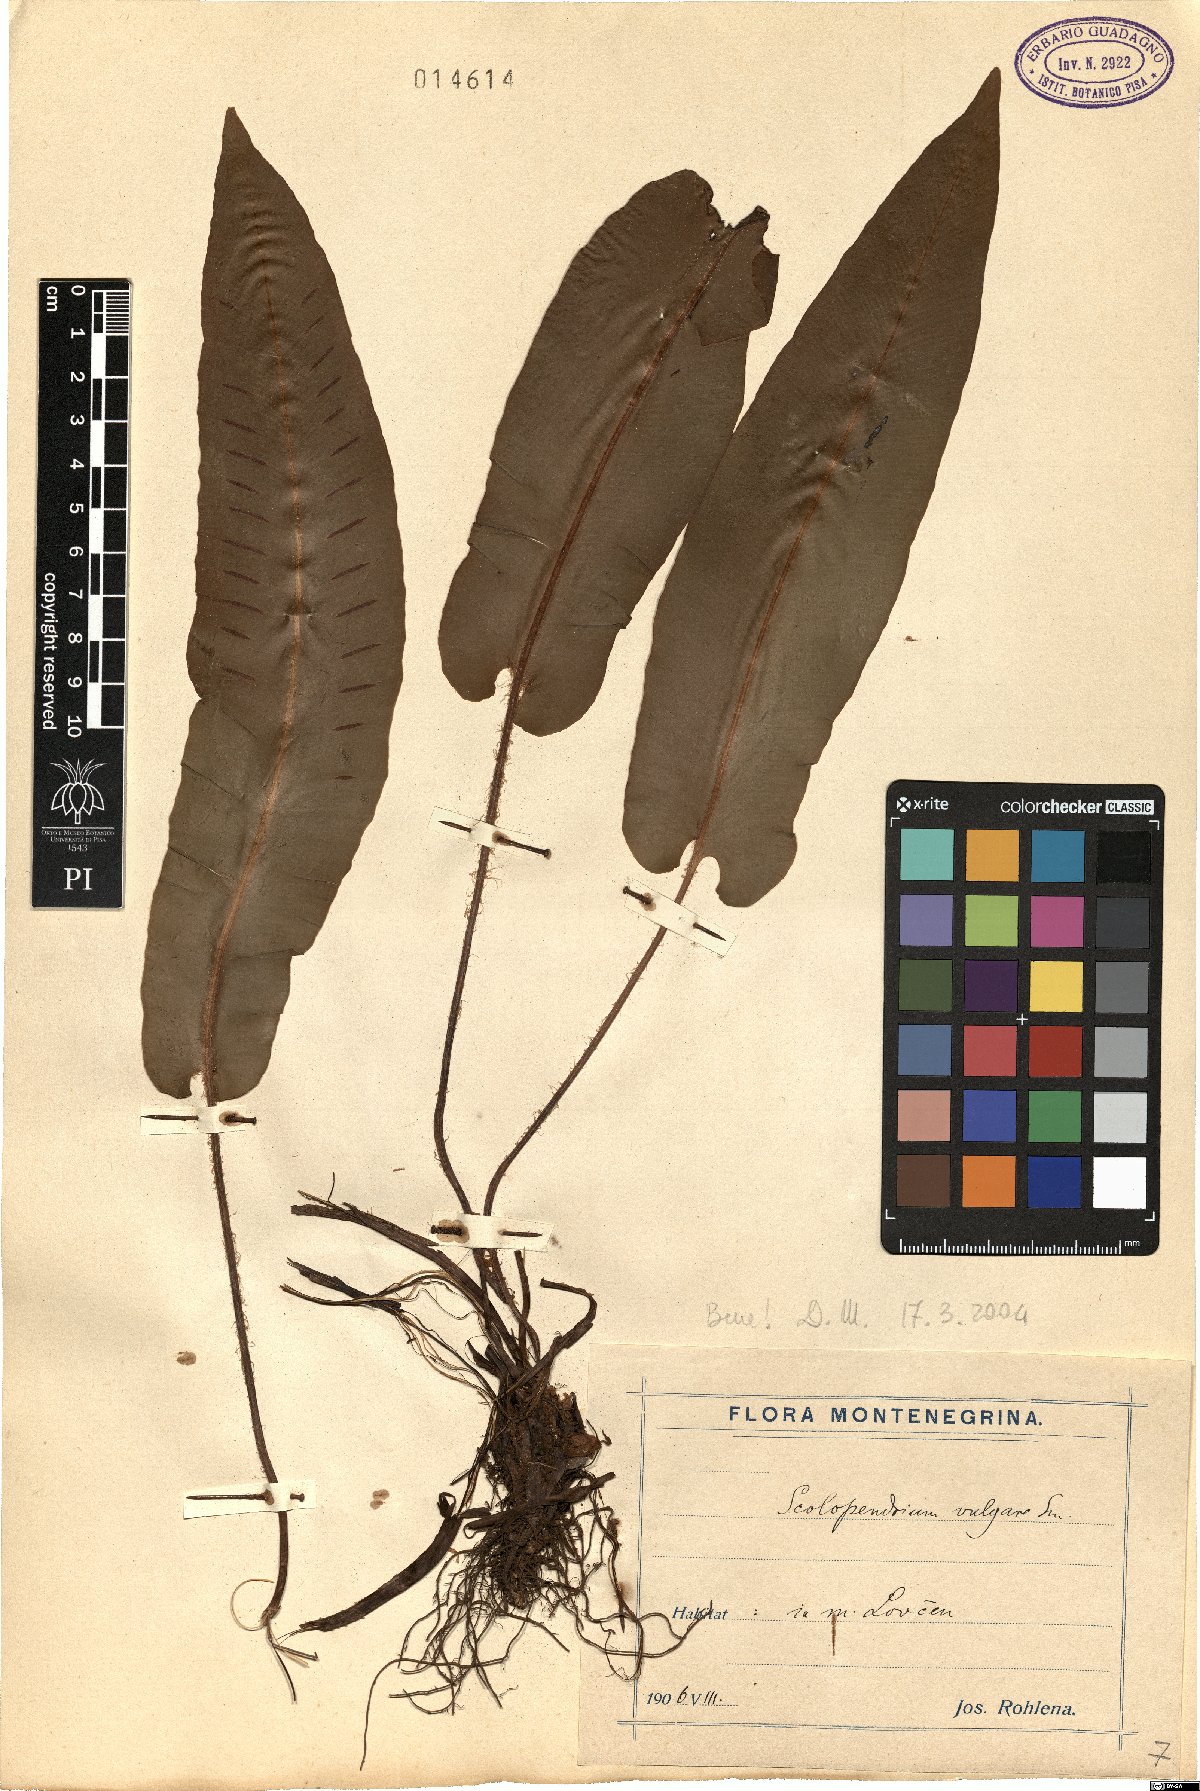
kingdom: Plantae
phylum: Tracheophyta
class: Polypodiopsida
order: Polypodiales
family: Aspleniaceae
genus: Asplenium
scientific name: Asplenium scolopendrium
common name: Hart's-tongue fern
